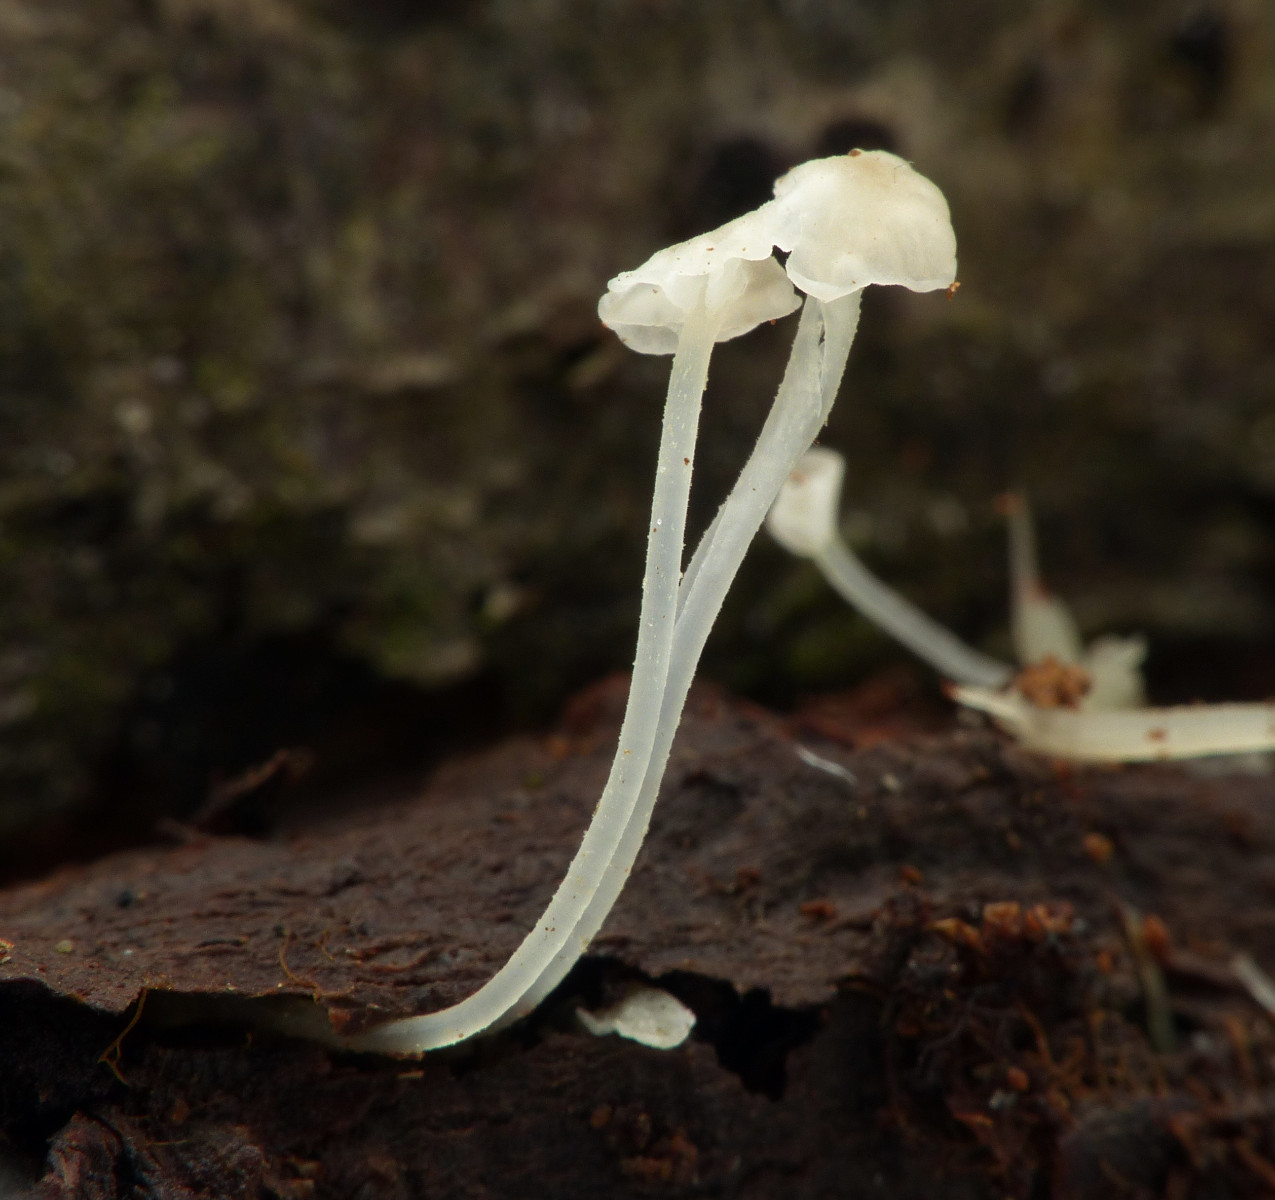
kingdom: Fungi
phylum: Basidiomycota
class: Agaricomycetes
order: Agaricales
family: Porotheleaceae
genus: Phloeomana
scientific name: Phloeomana speirea
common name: kvist-huesvamp
